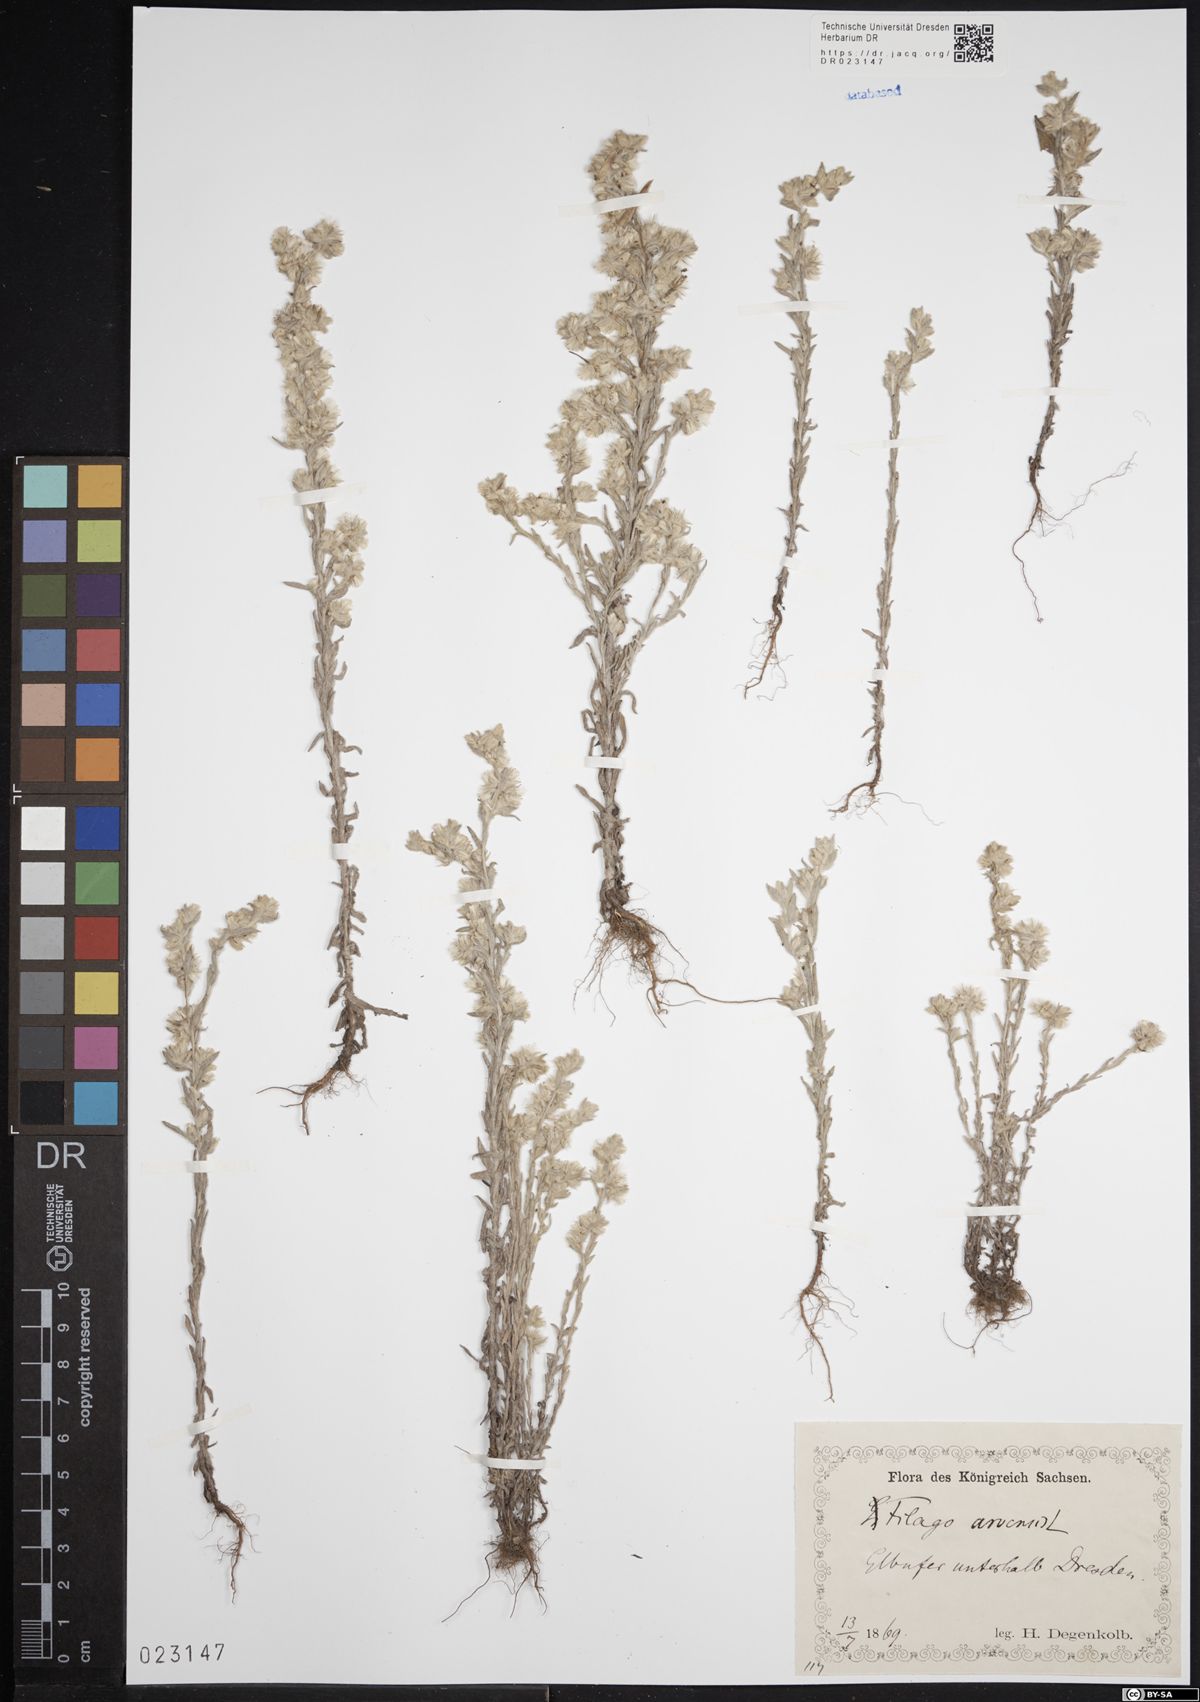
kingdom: Plantae
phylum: Tracheophyta
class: Magnoliopsida
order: Asterales
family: Asteraceae
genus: Filago
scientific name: Filago arvensis
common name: Field cudweed
